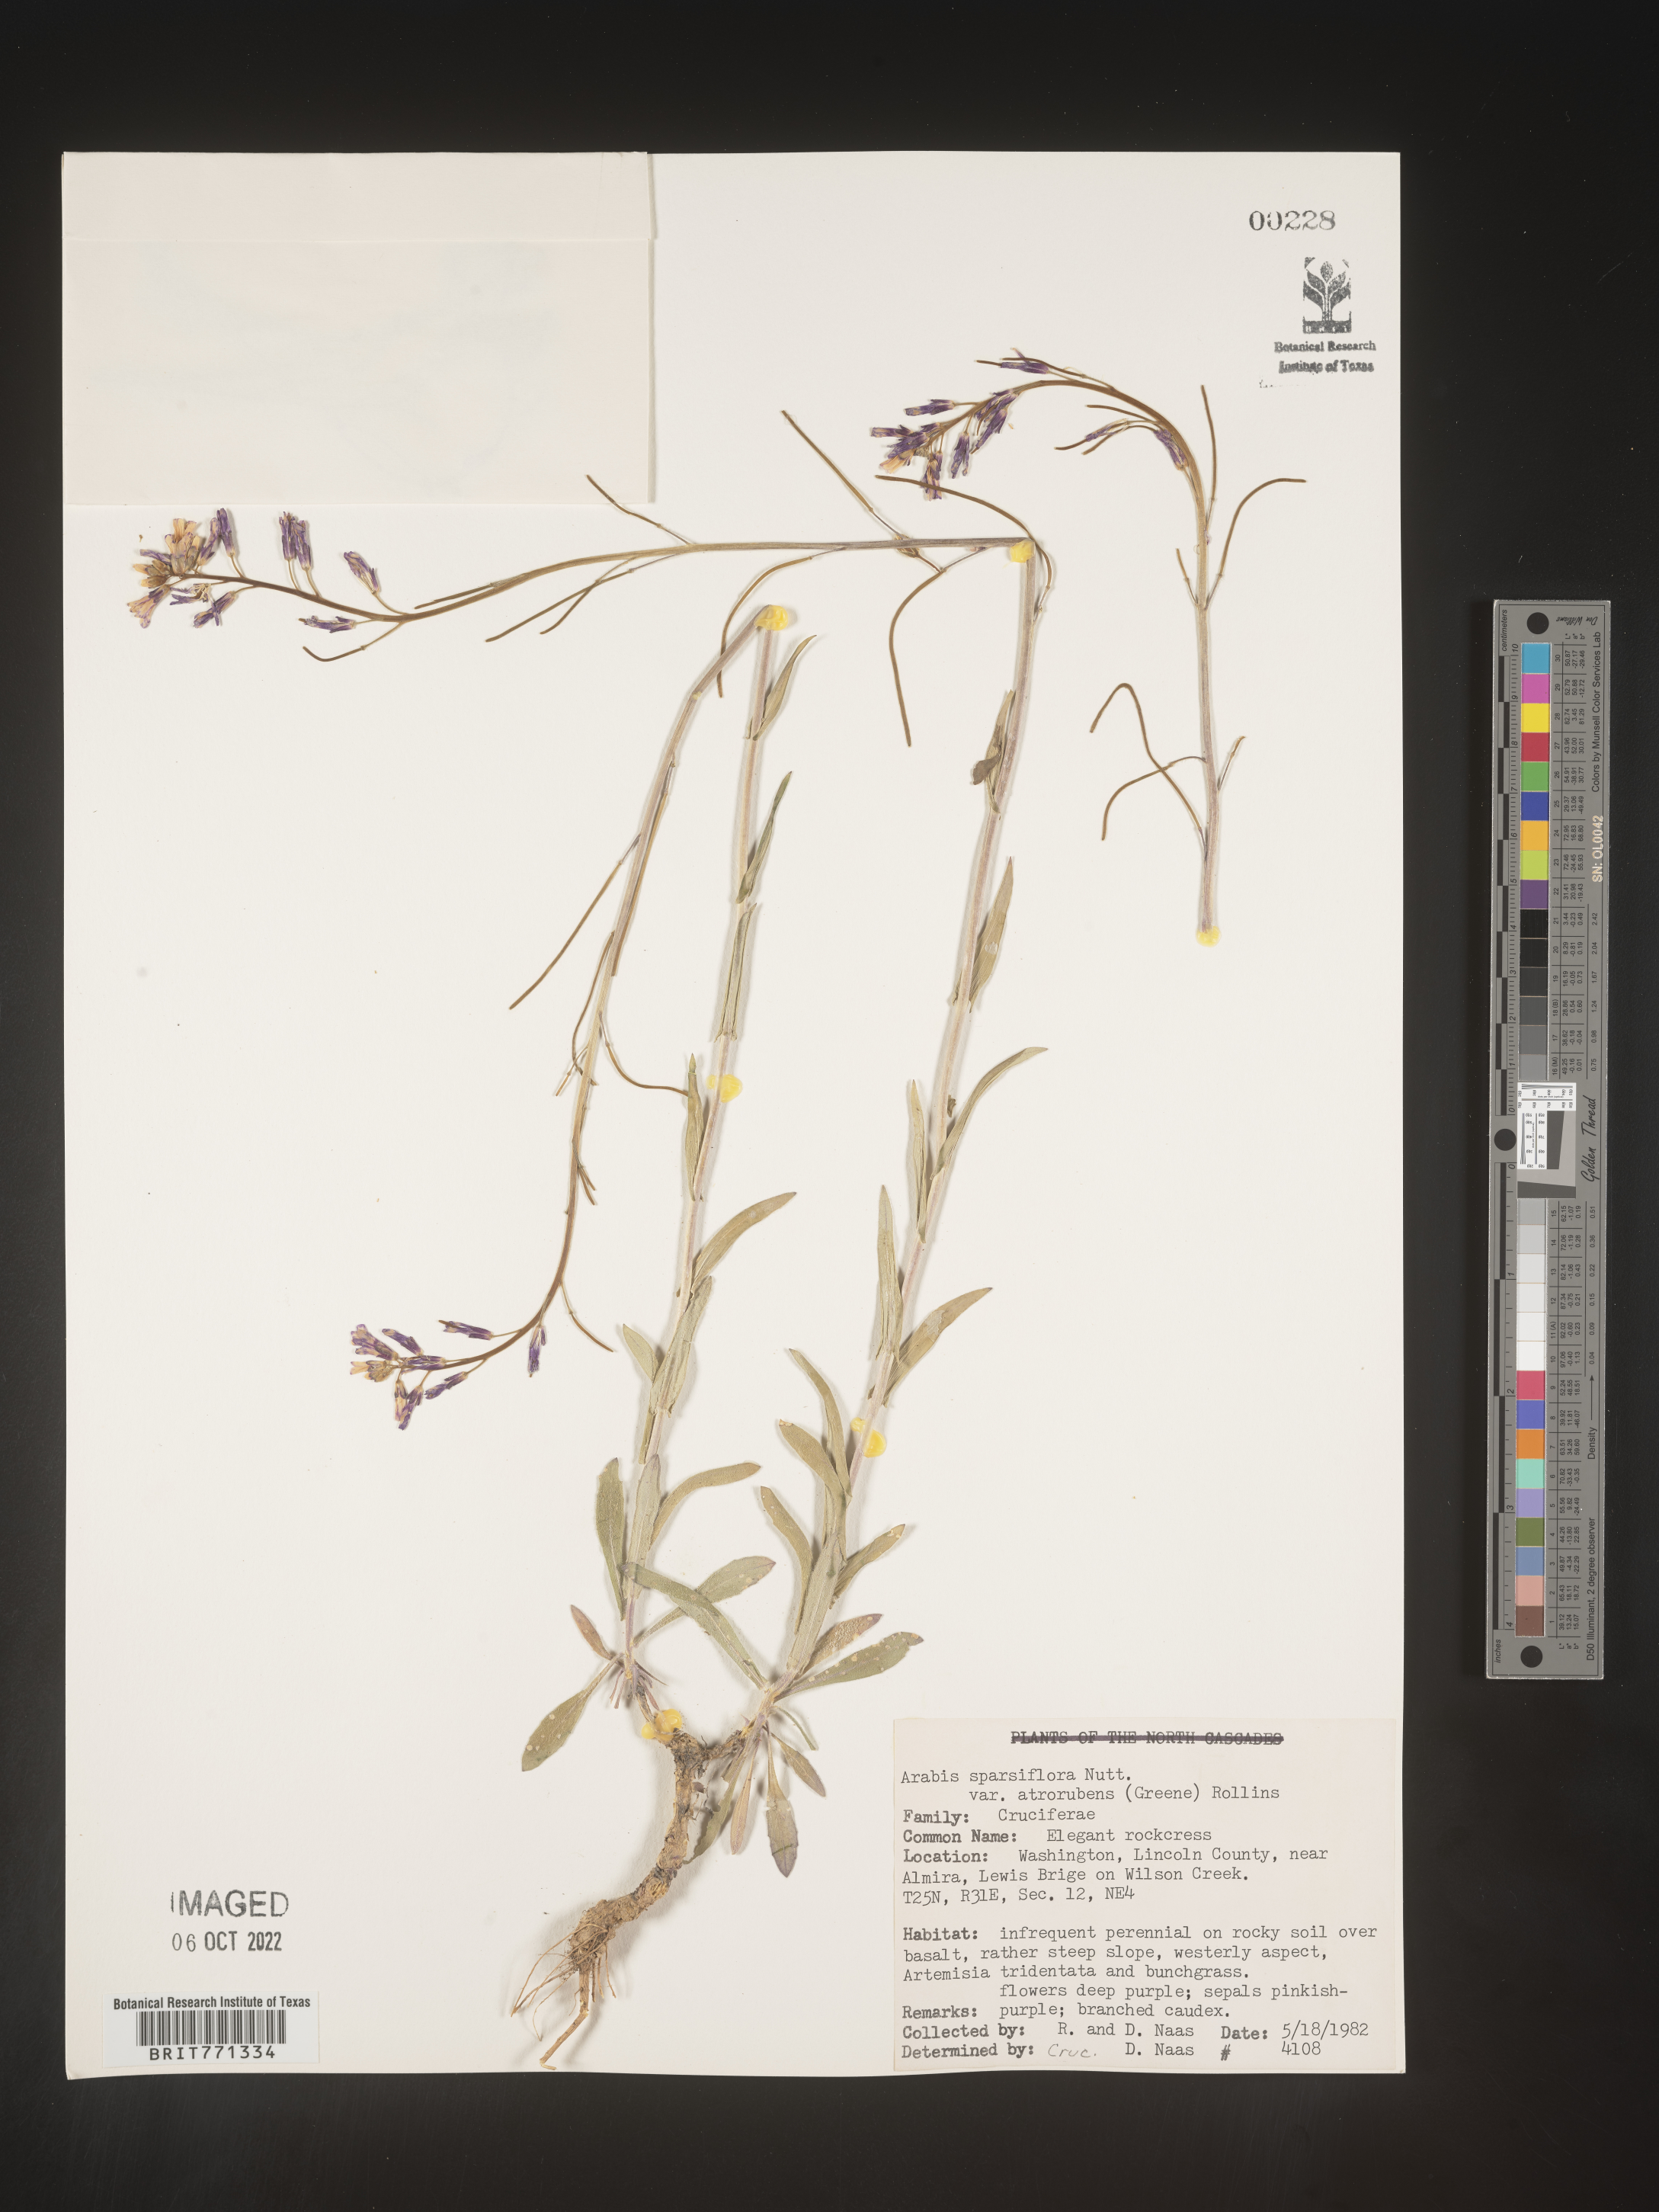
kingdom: Plantae
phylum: Tracheophyta
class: Magnoliopsida
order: Brassicales
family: Brassicaceae
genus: Arabis
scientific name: Arabis
